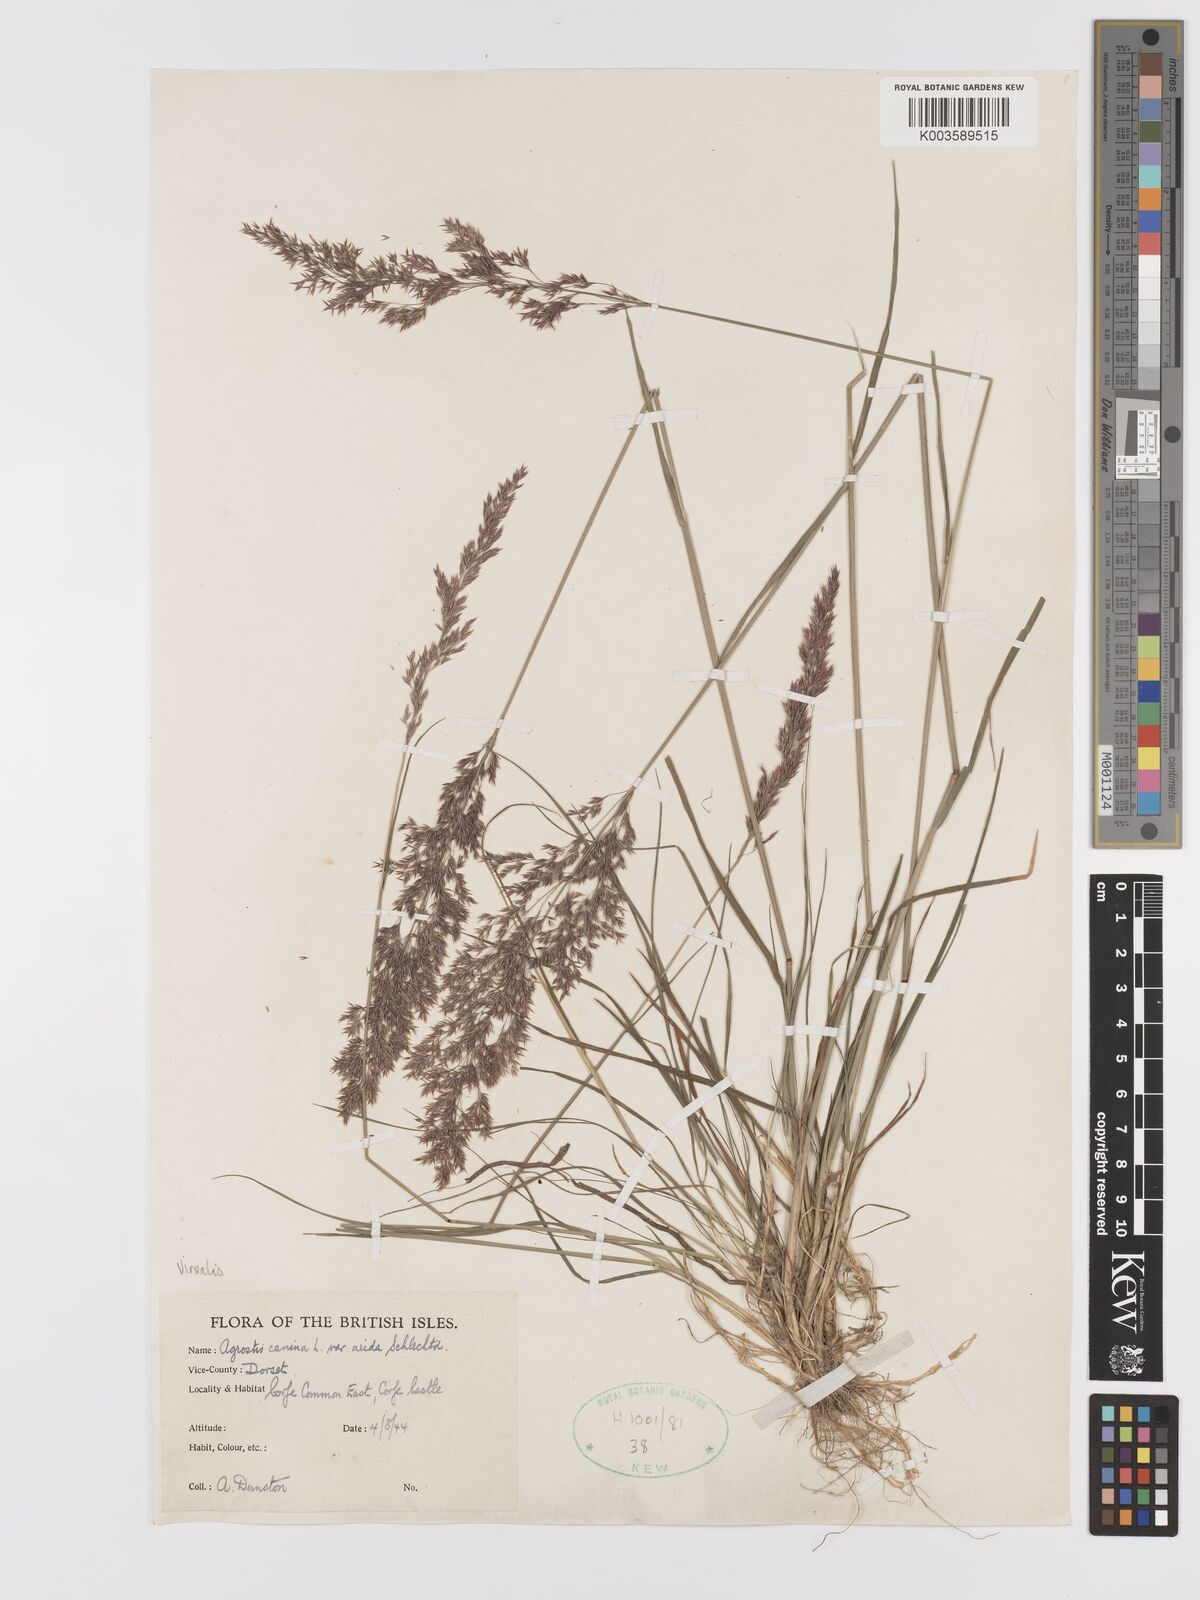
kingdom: Plantae
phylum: Tracheophyta
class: Liliopsida
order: Poales
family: Poaceae
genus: Agrostis
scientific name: Agrostis
